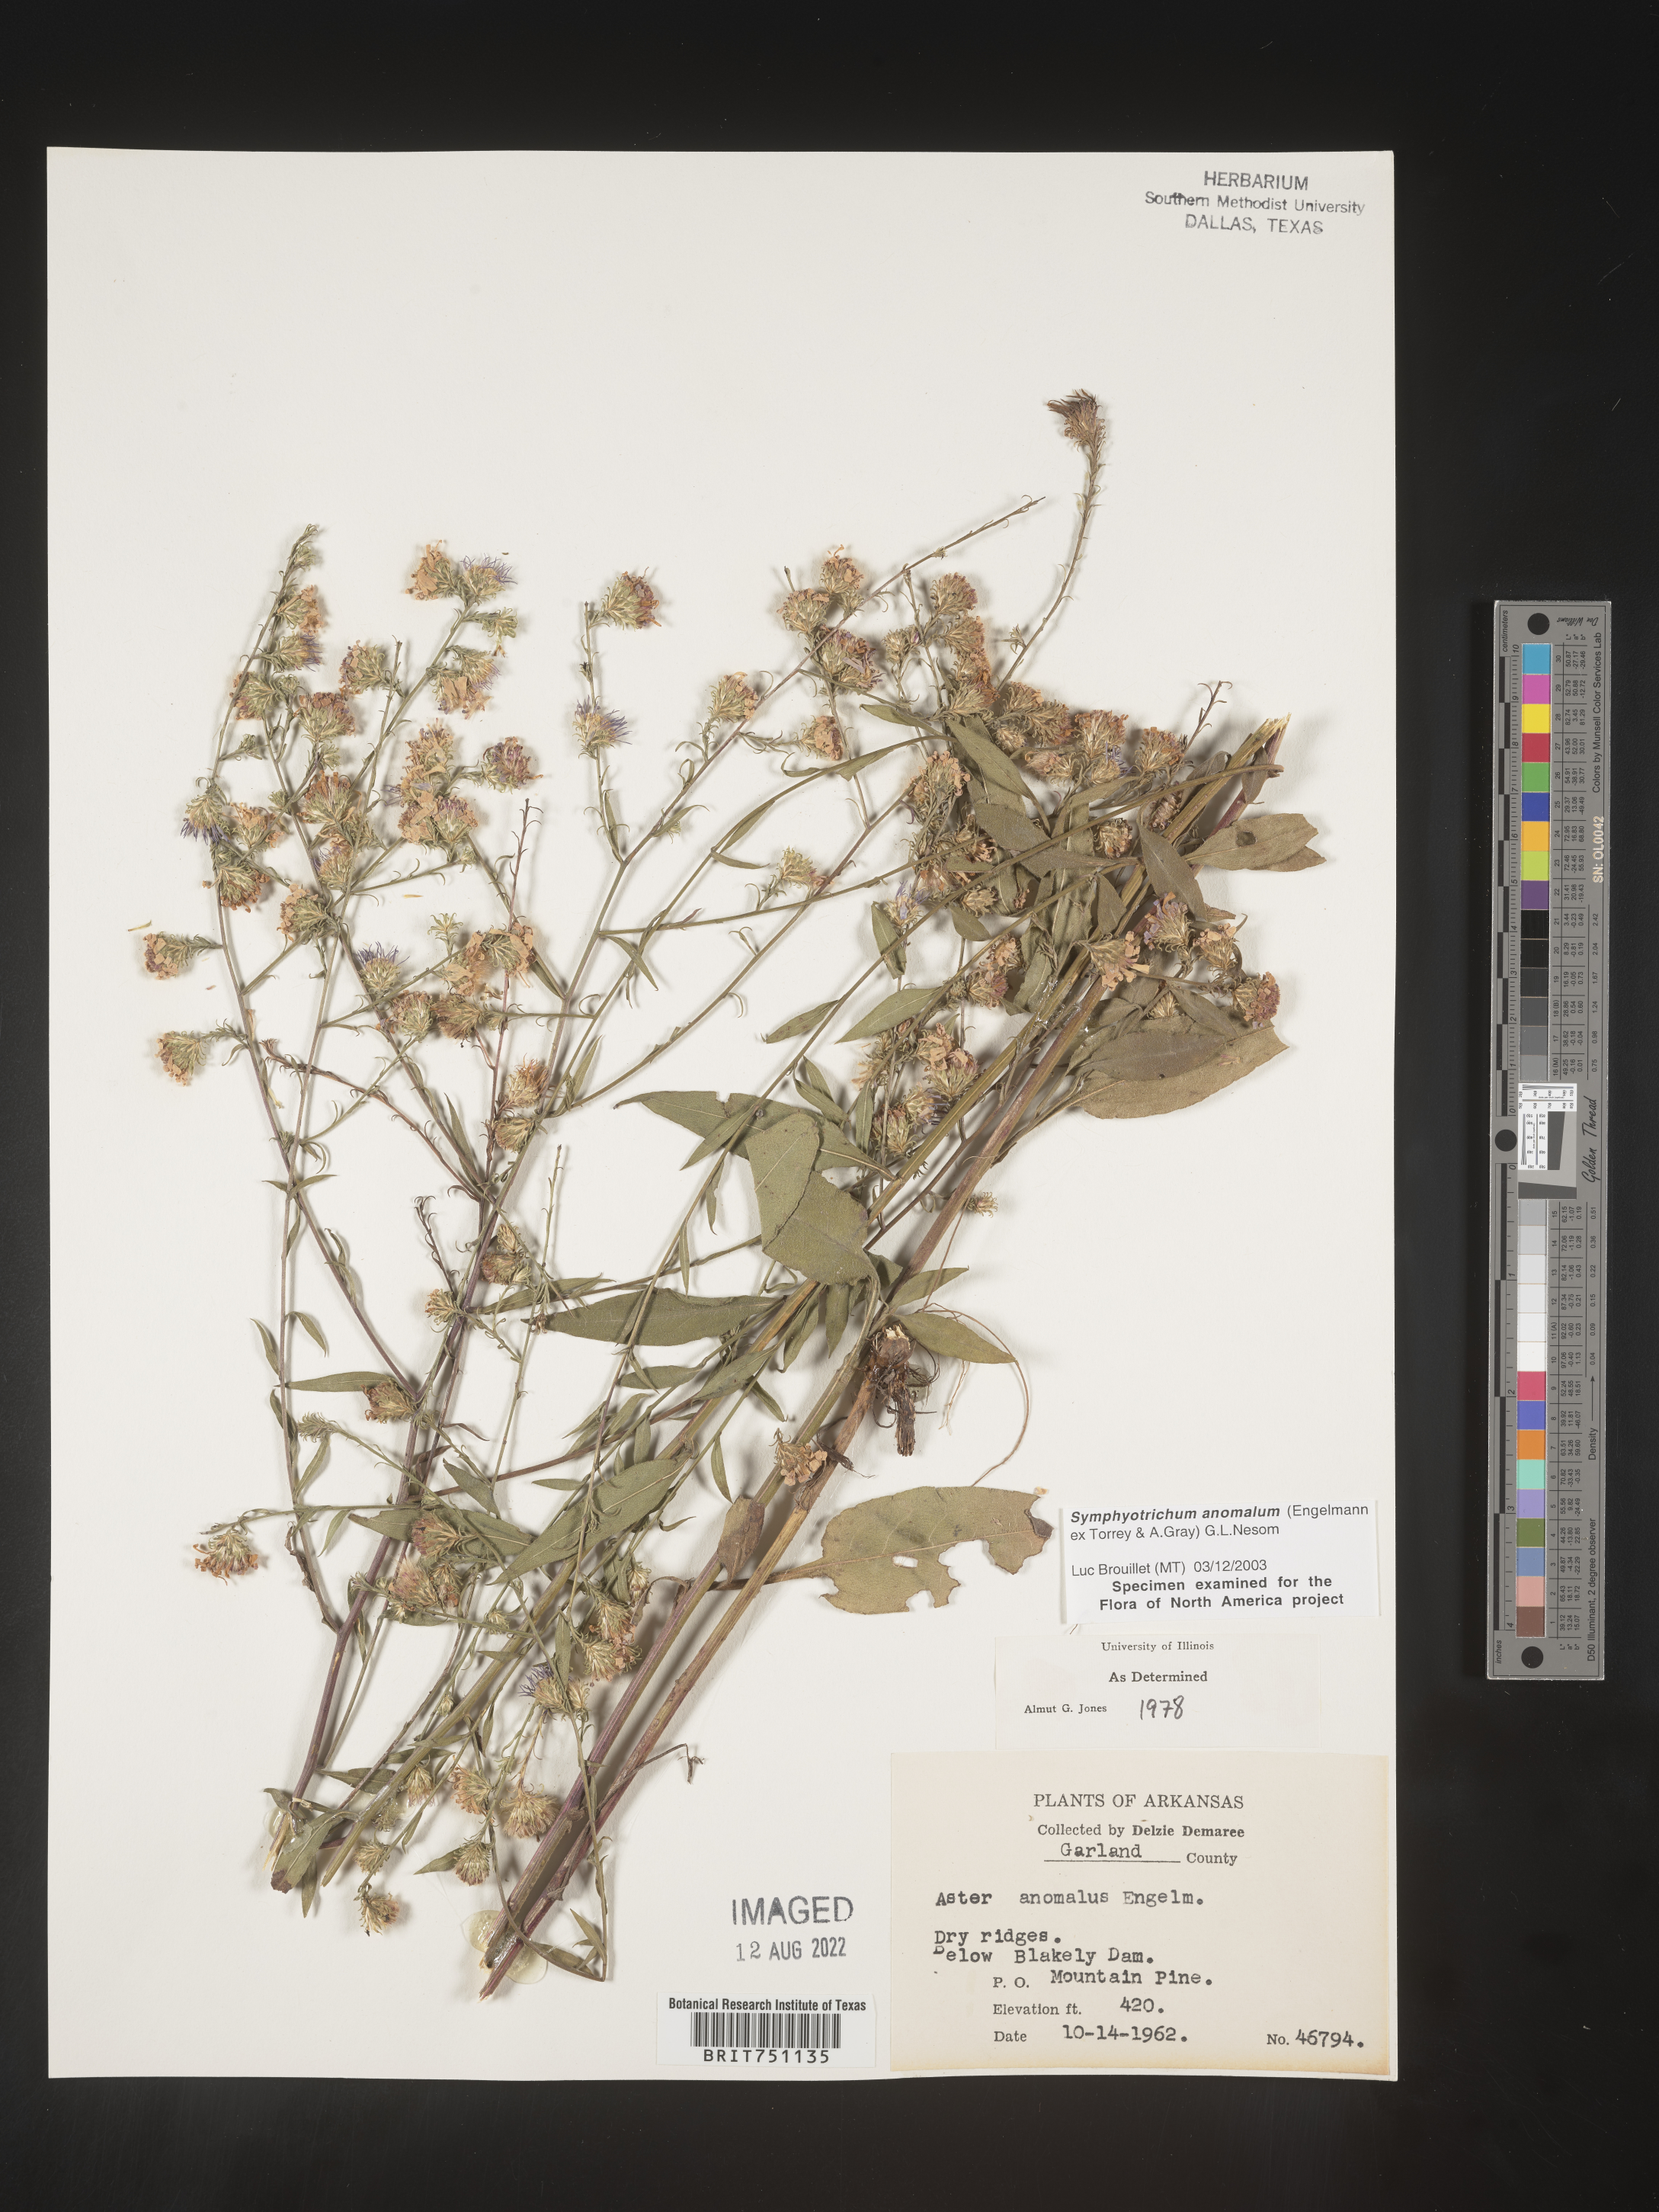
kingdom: Plantae
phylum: Tracheophyta
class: Magnoliopsida
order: Asterales
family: Asteraceae
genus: Symphyotrichum
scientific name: Symphyotrichum anomalum
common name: Many-ray aster
